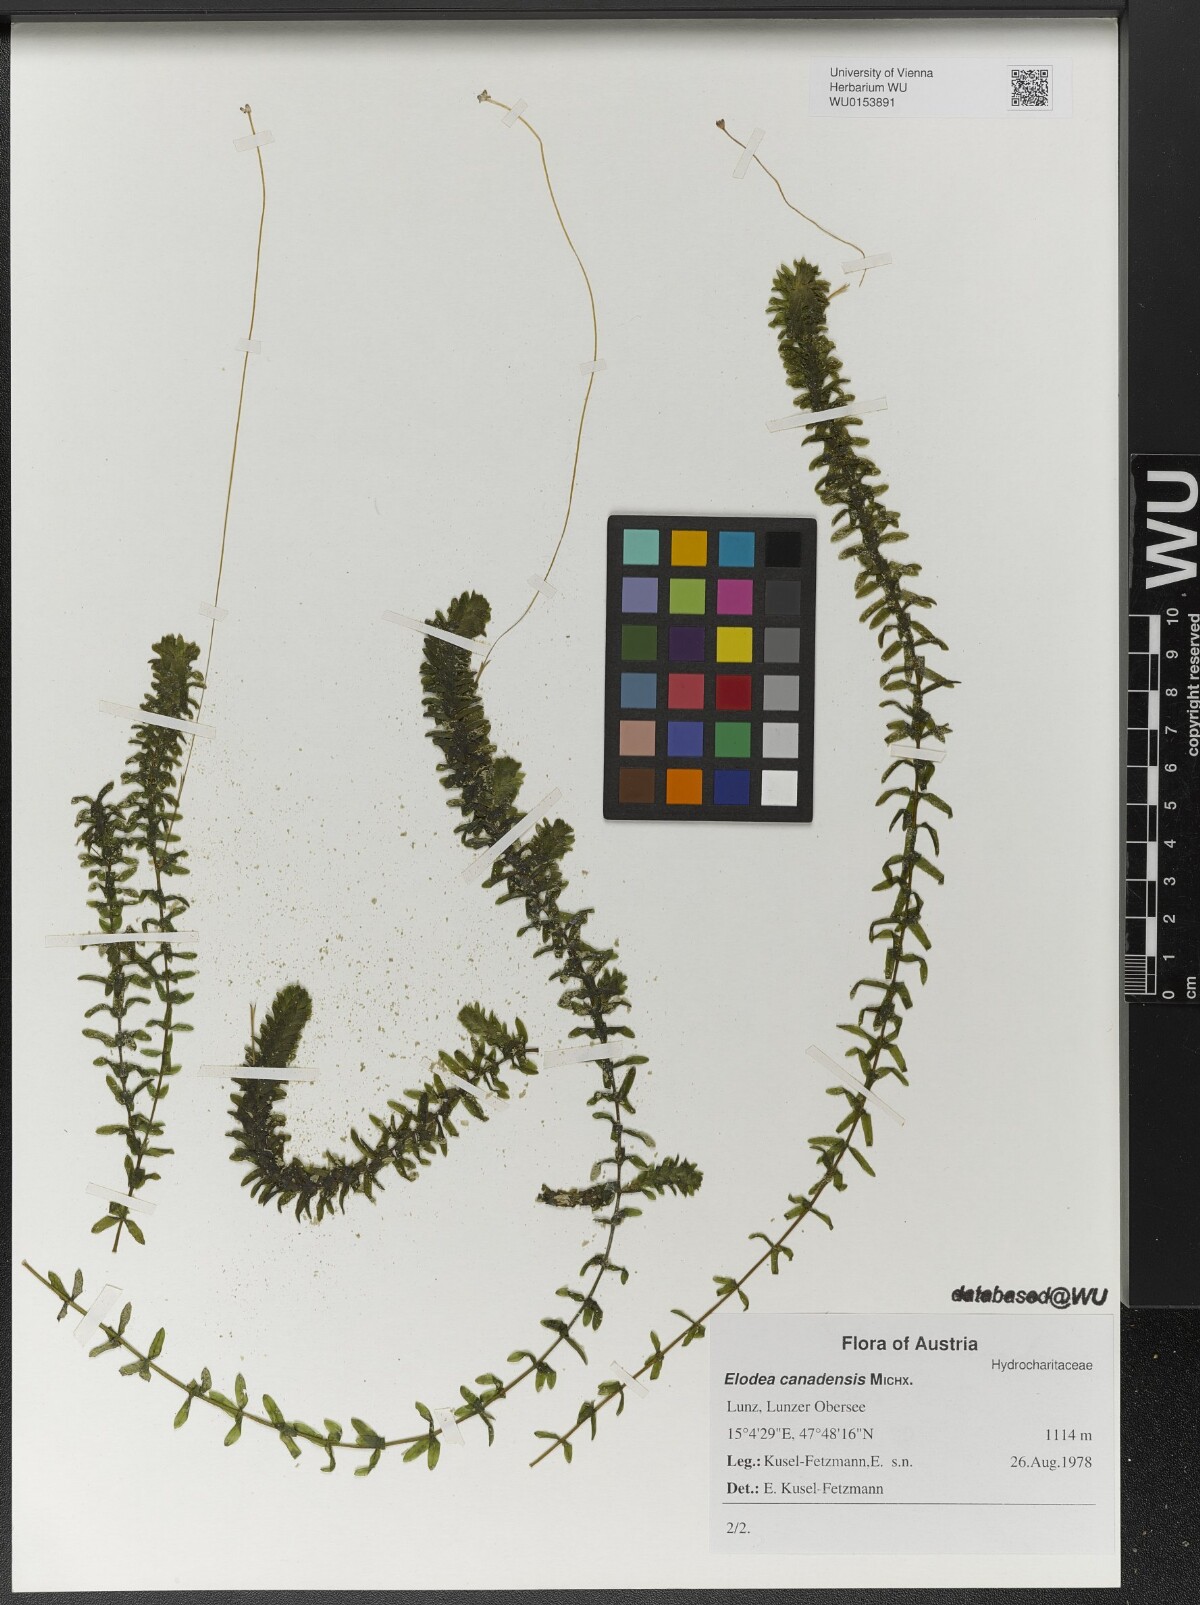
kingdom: Plantae
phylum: Tracheophyta
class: Liliopsida
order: Alismatales
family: Hydrocharitaceae
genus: Elodea
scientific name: Elodea canadensis
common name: Canadian waterweed
